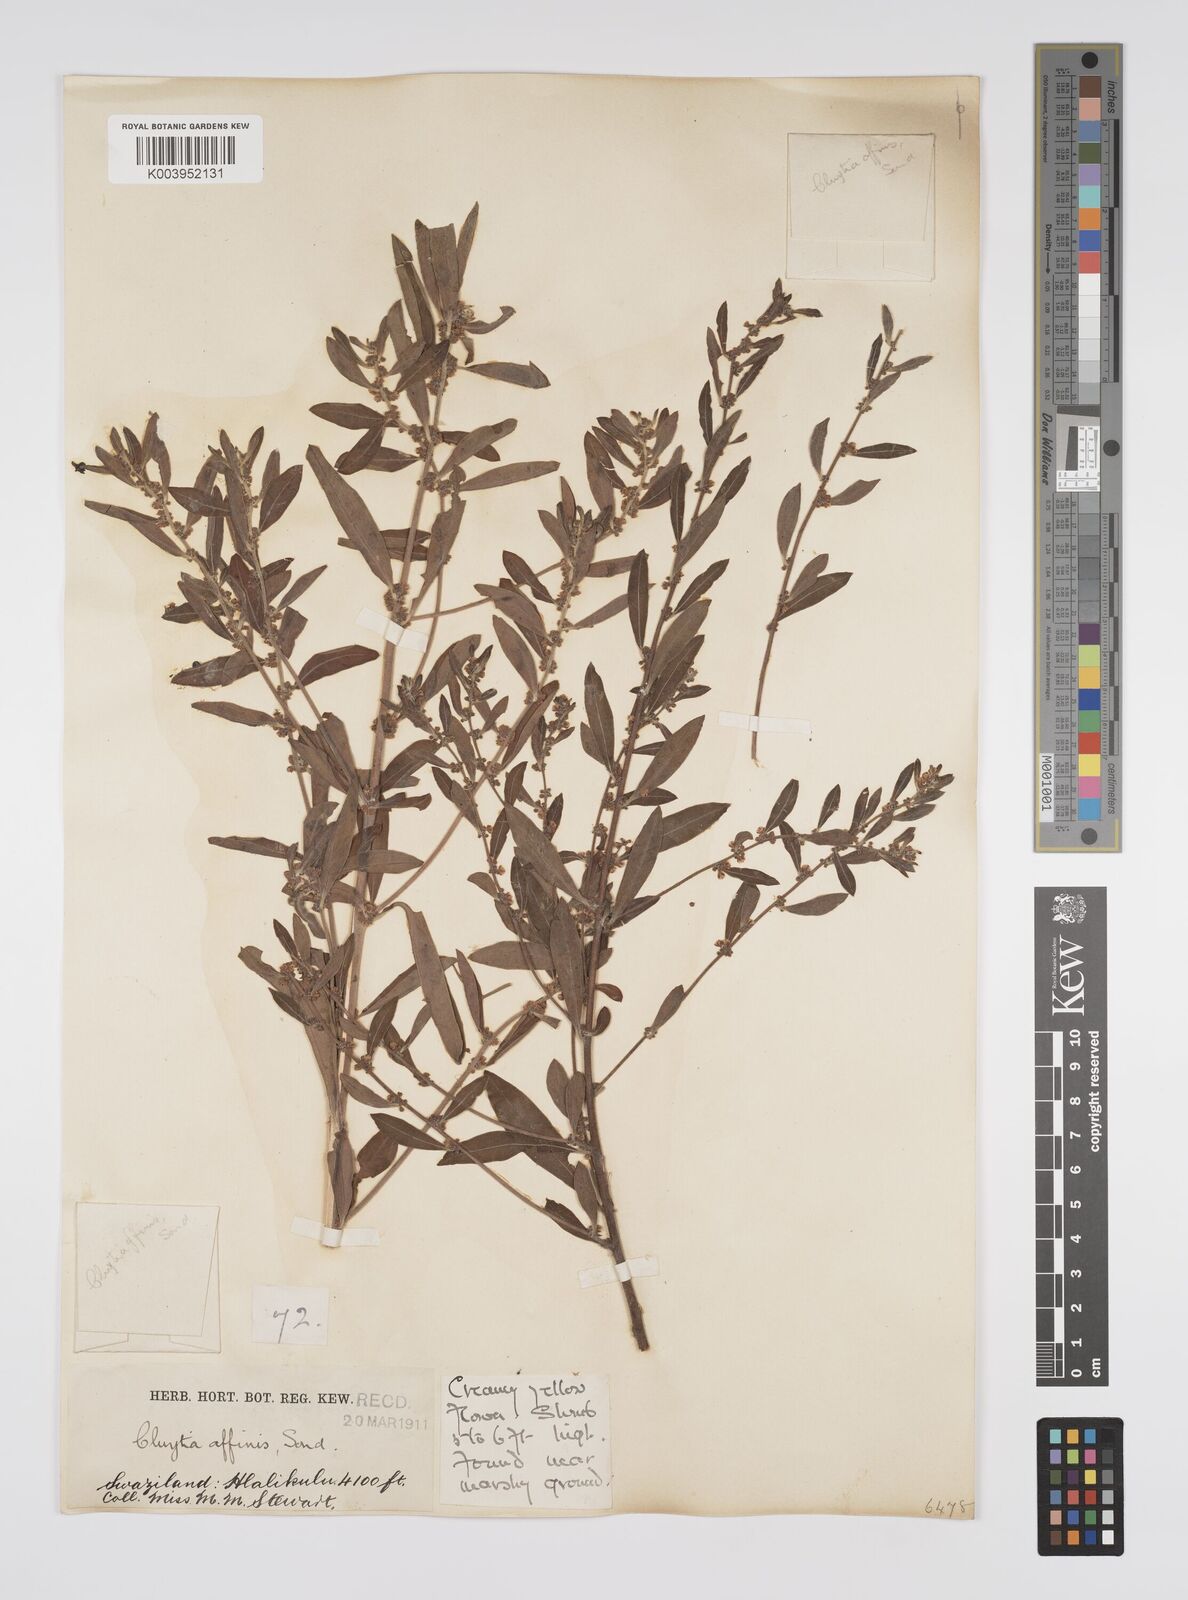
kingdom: Plantae
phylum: Tracheophyta
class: Magnoliopsida
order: Malpighiales
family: Peraceae
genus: Clutia
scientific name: Clutia affinis
